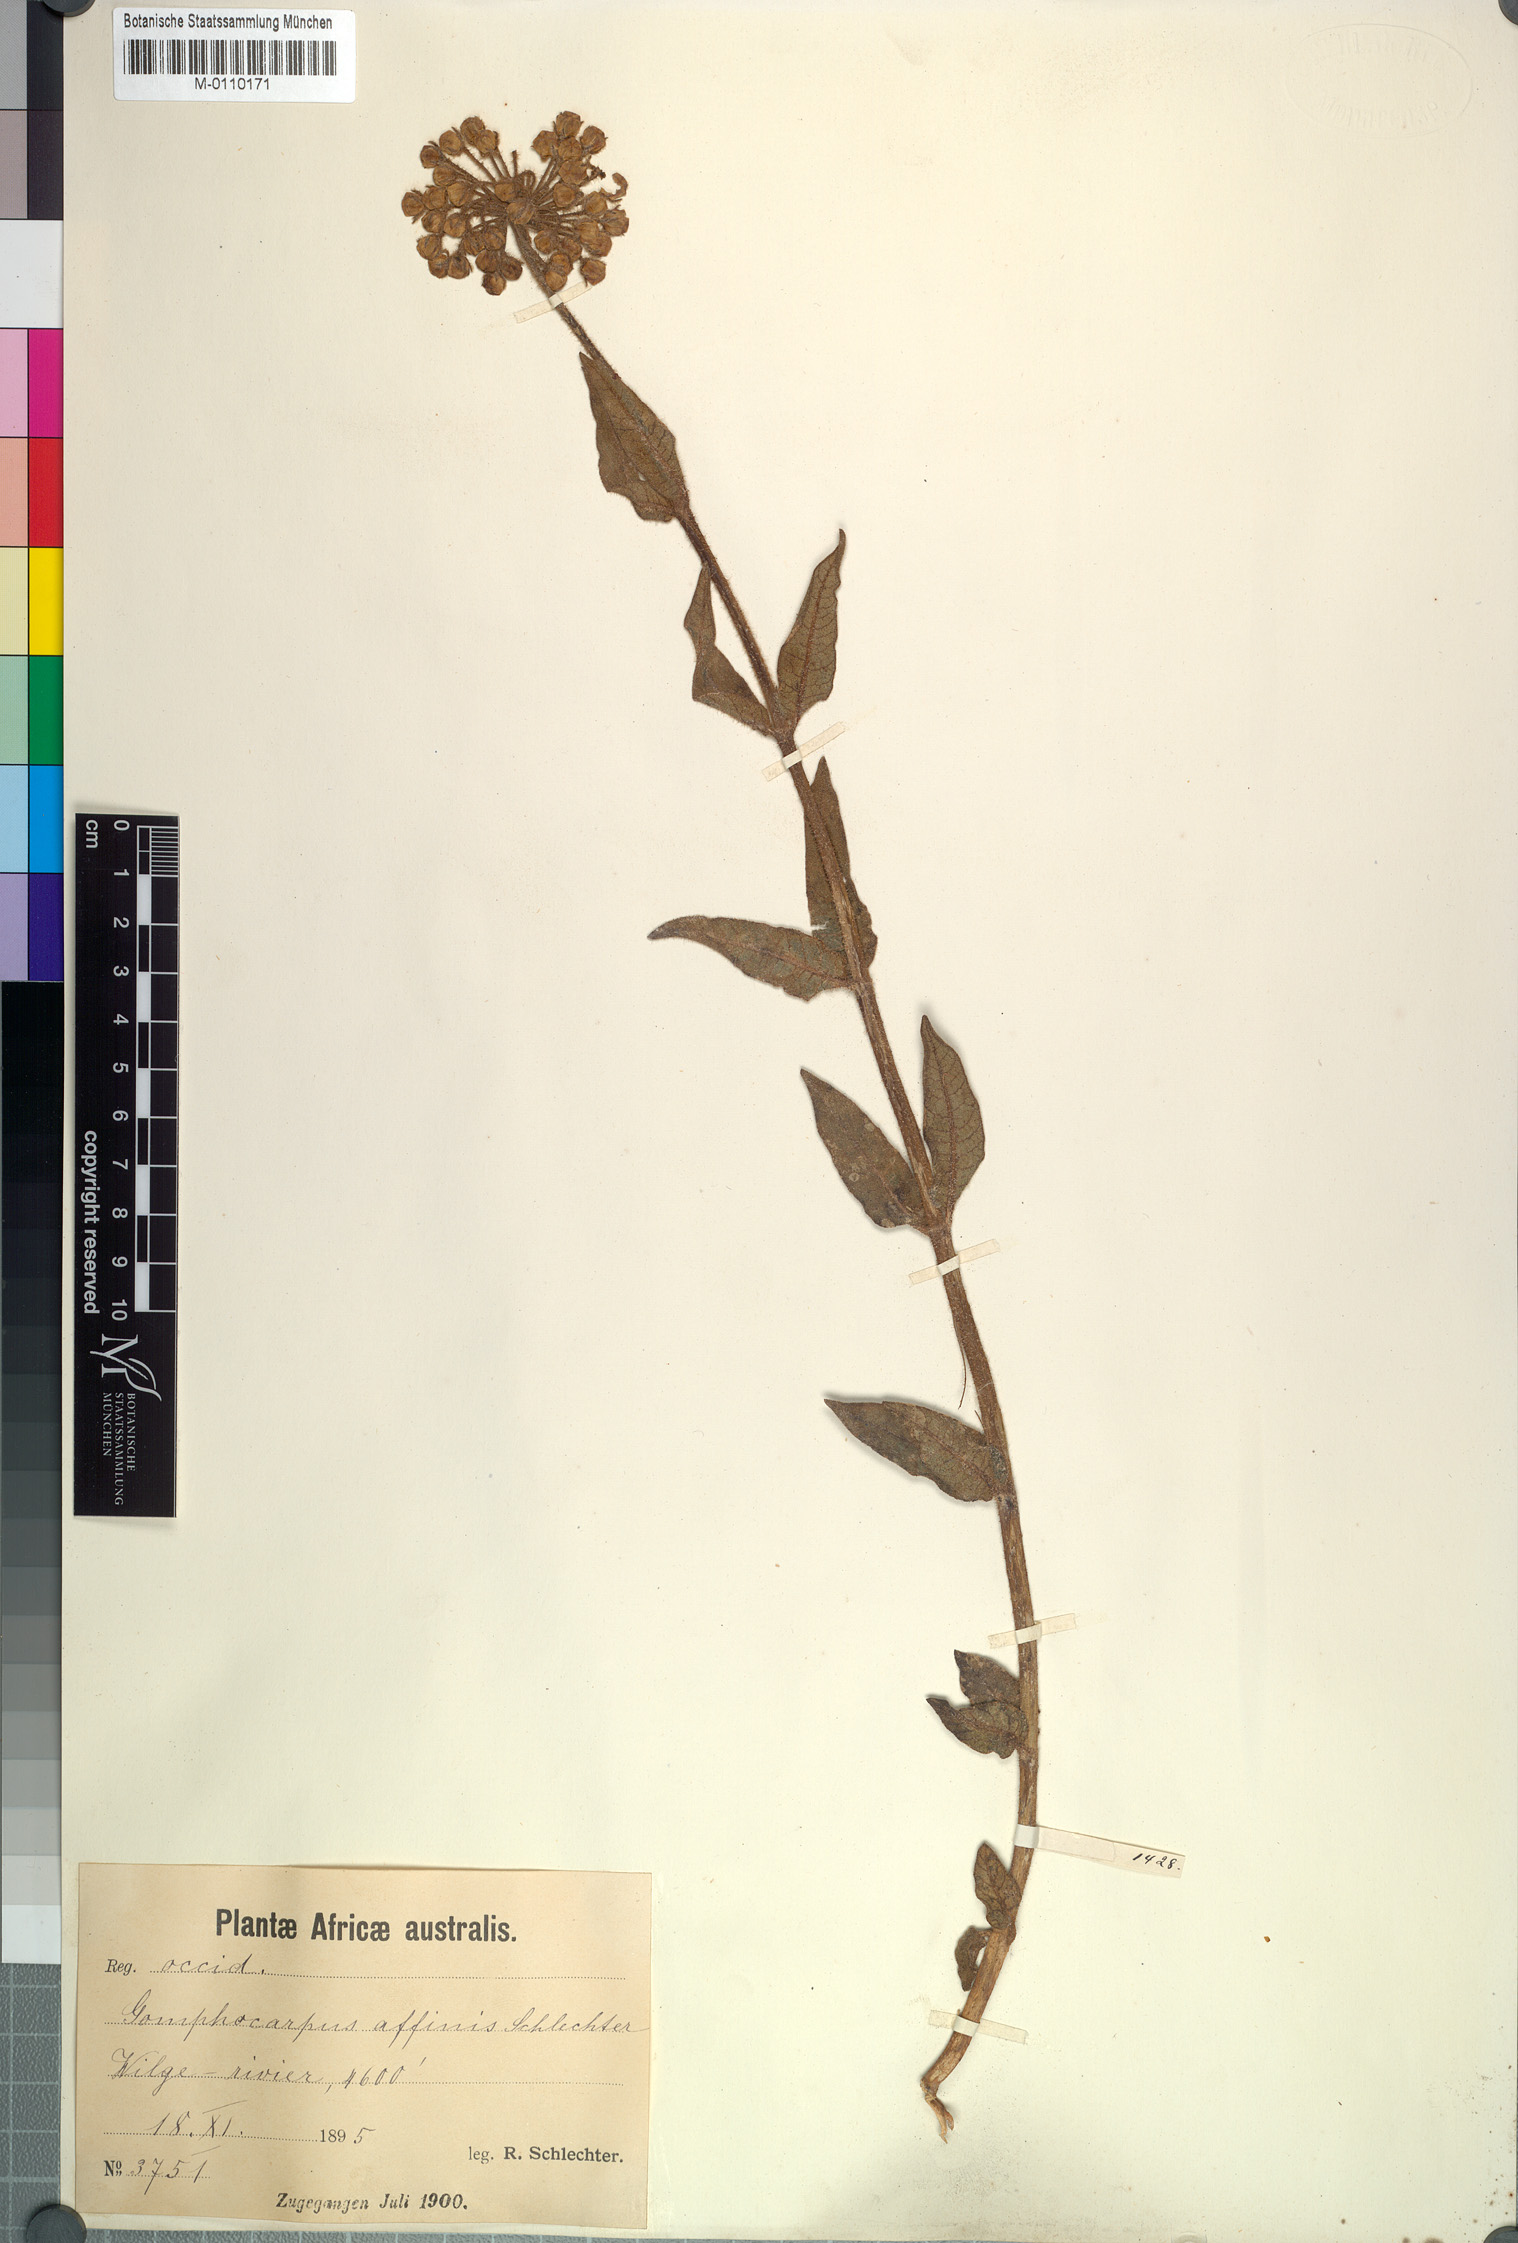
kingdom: Plantae
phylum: Tracheophyta
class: Magnoliopsida
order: Gentianales
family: Apocynaceae
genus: Asclepias
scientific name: Asclepias albens
